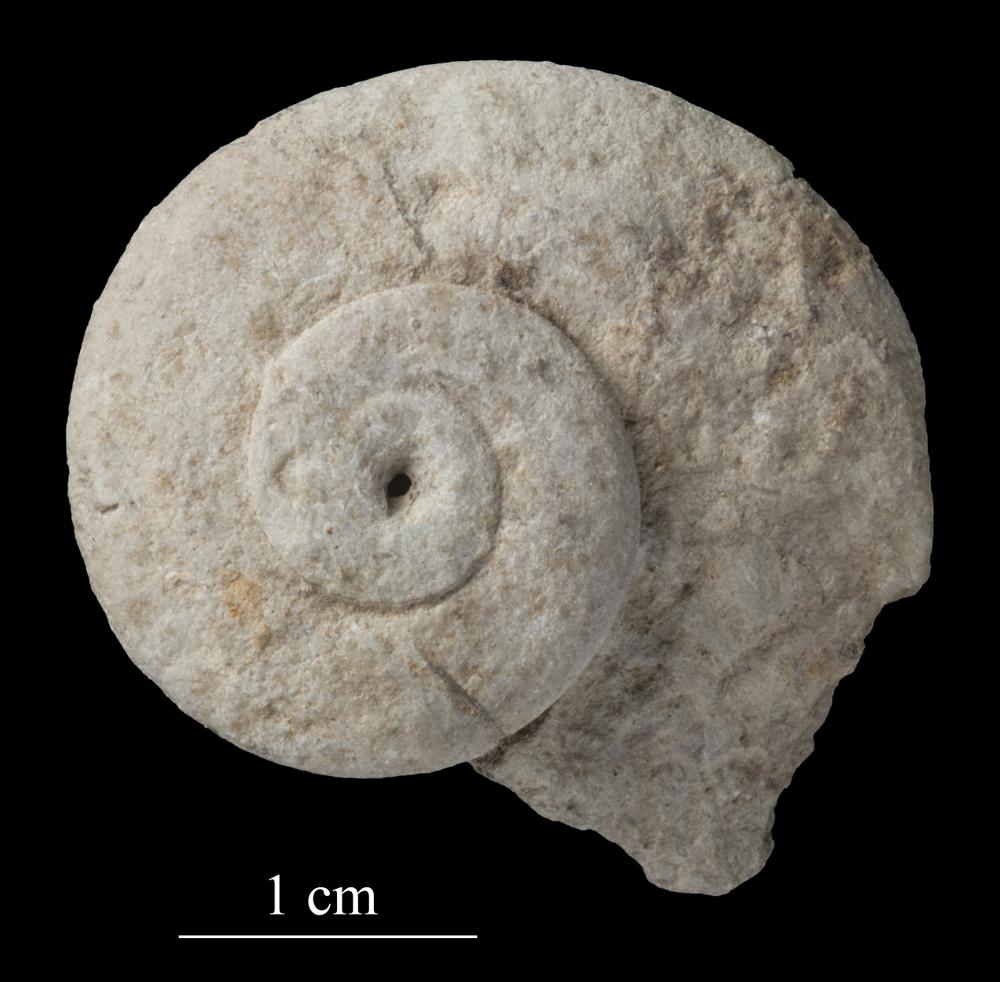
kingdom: Animalia
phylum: Mollusca
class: Gastropoda
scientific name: Gastropoda
